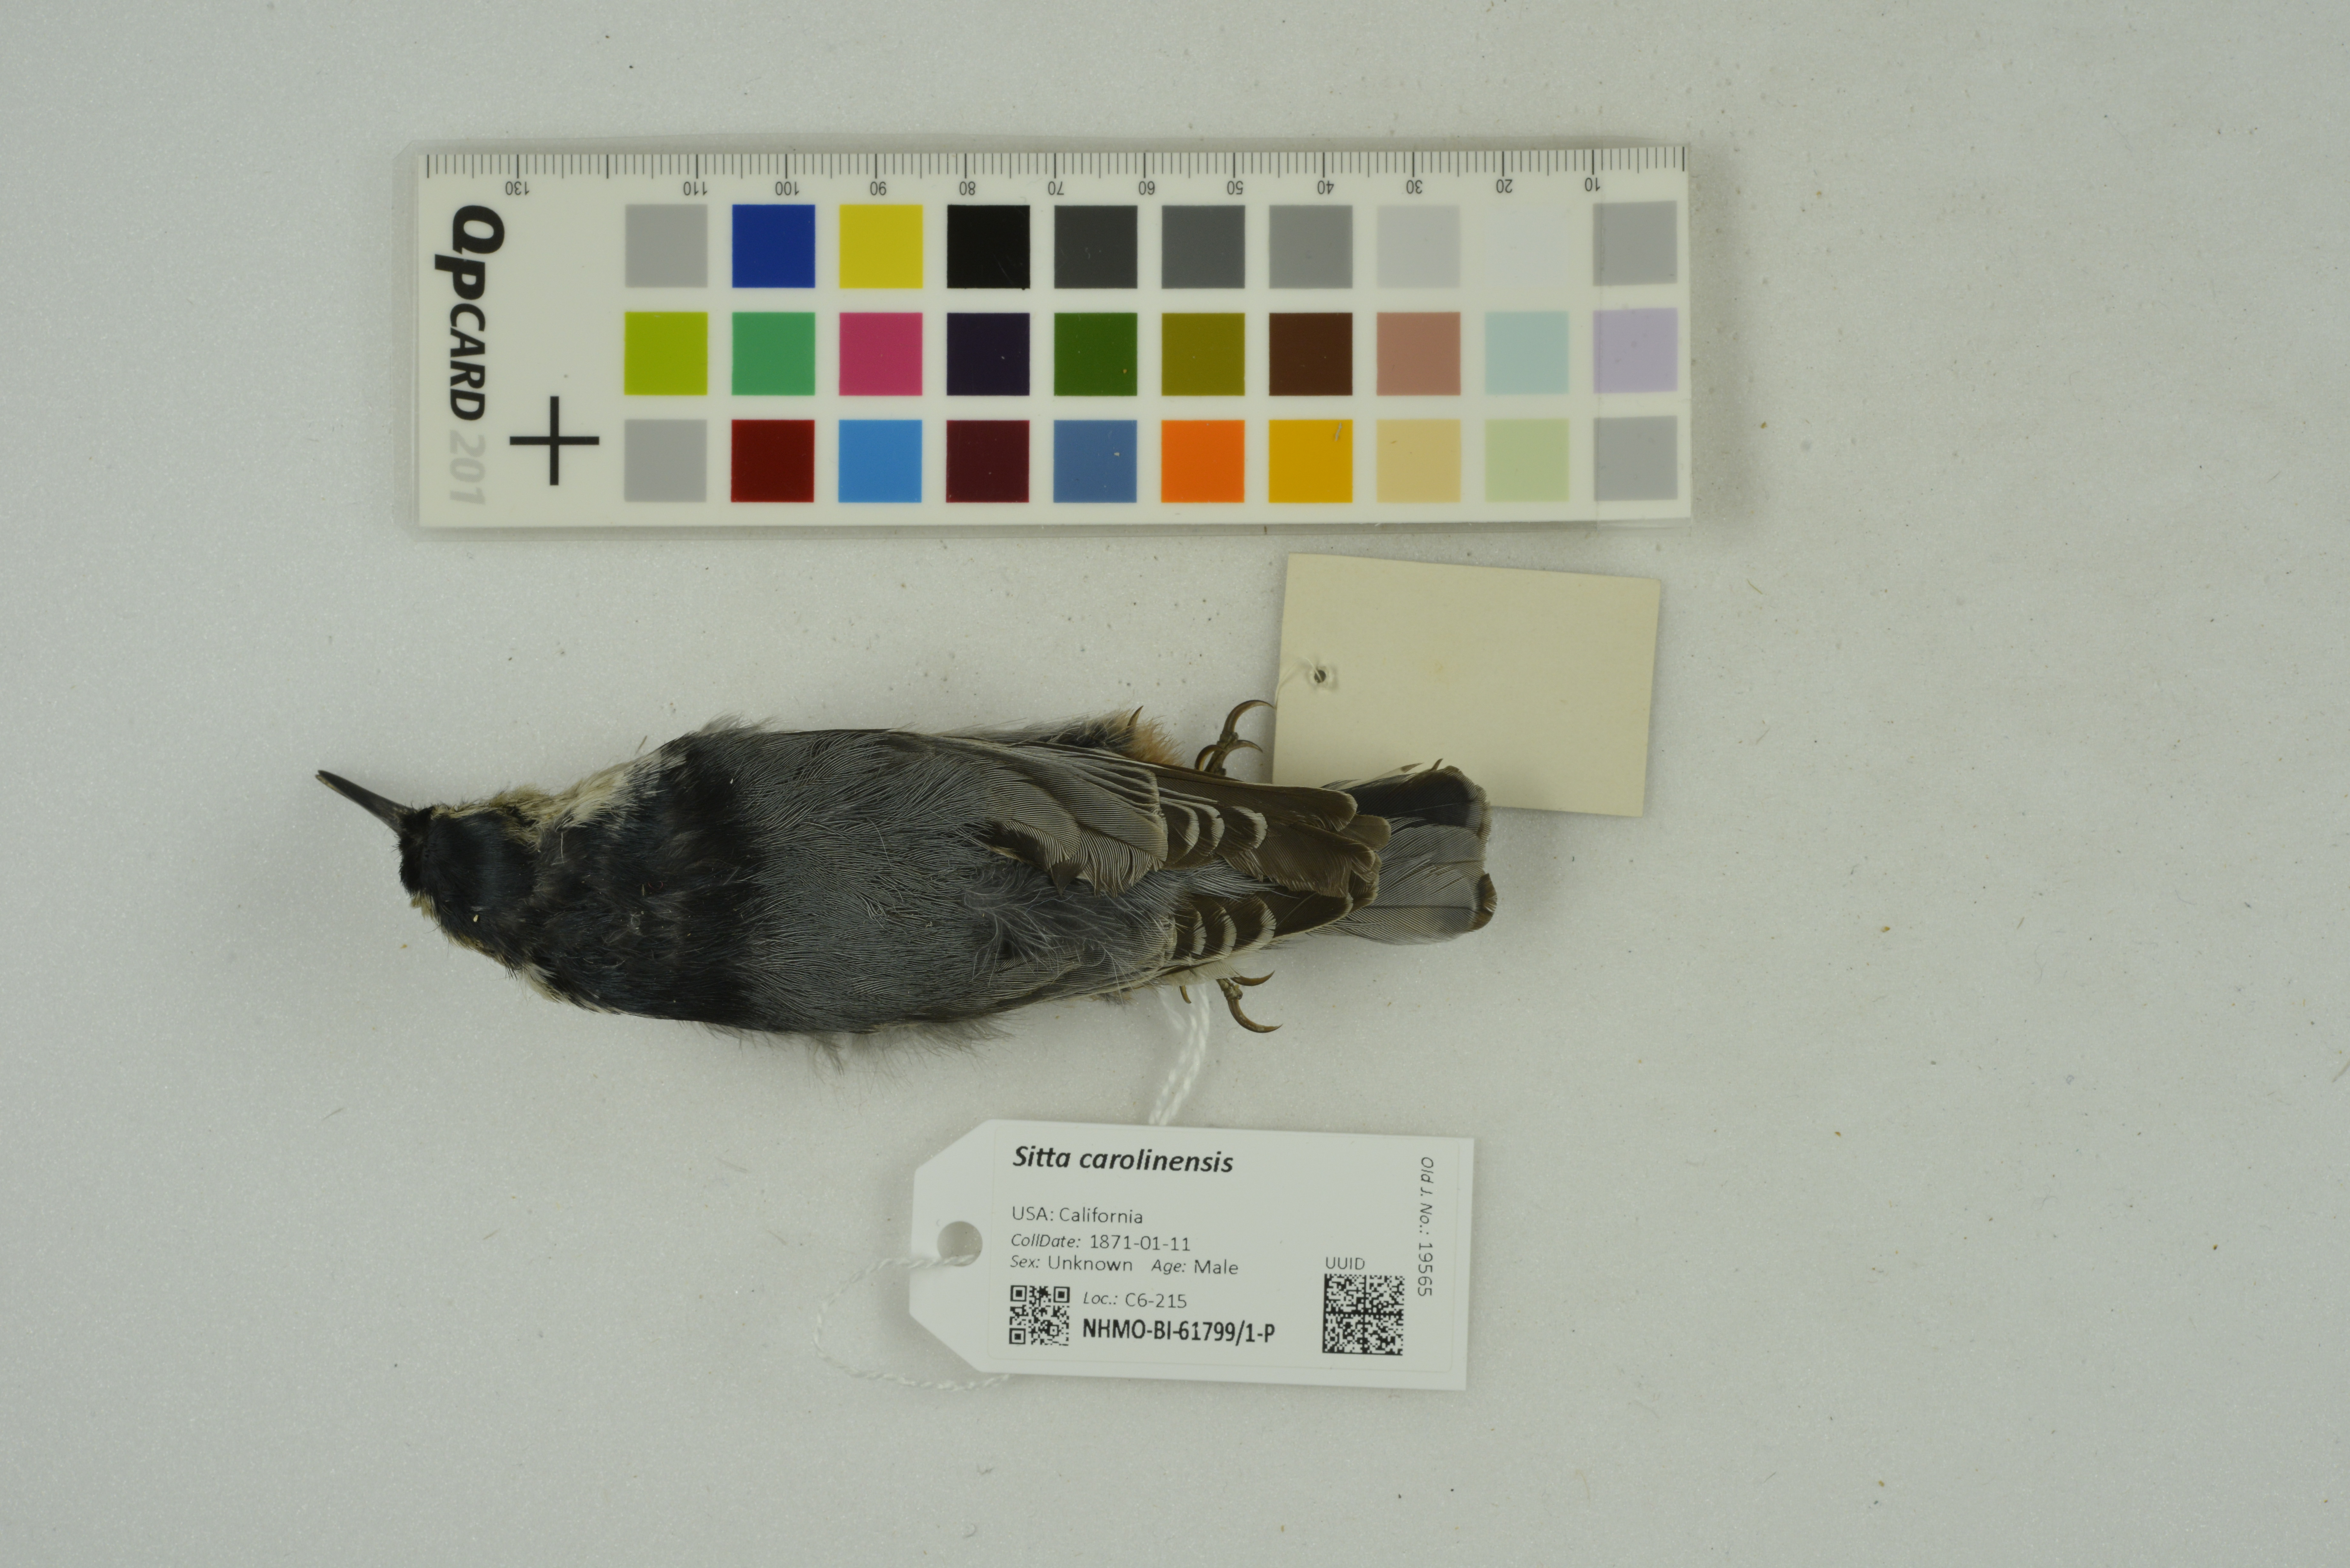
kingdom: Animalia
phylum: Chordata
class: Aves
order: Passeriformes
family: Sittidae
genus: Sitta
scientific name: Sitta carolinensis
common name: White-breasted nuthatch
